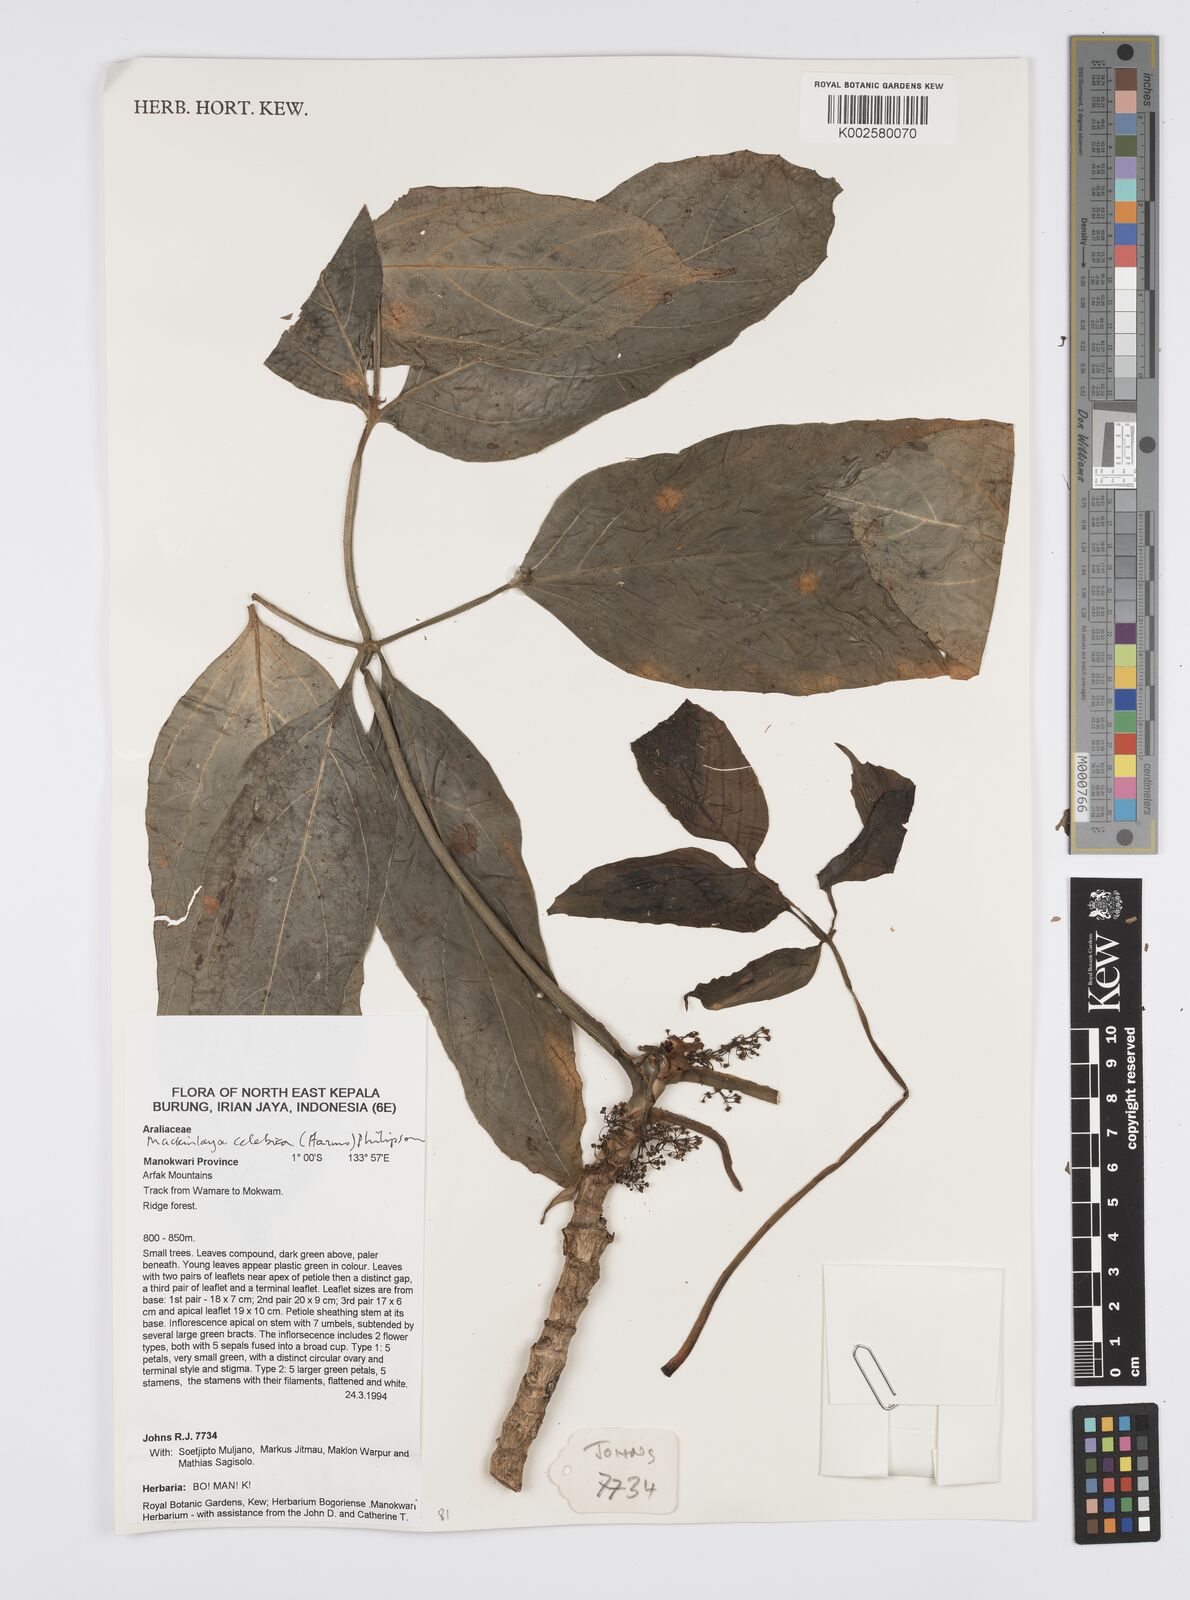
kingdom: Plantae
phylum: Tracheophyta
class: Magnoliopsida
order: Apiales
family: Apiaceae
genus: Mackinlaya
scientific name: Mackinlaya celebica
